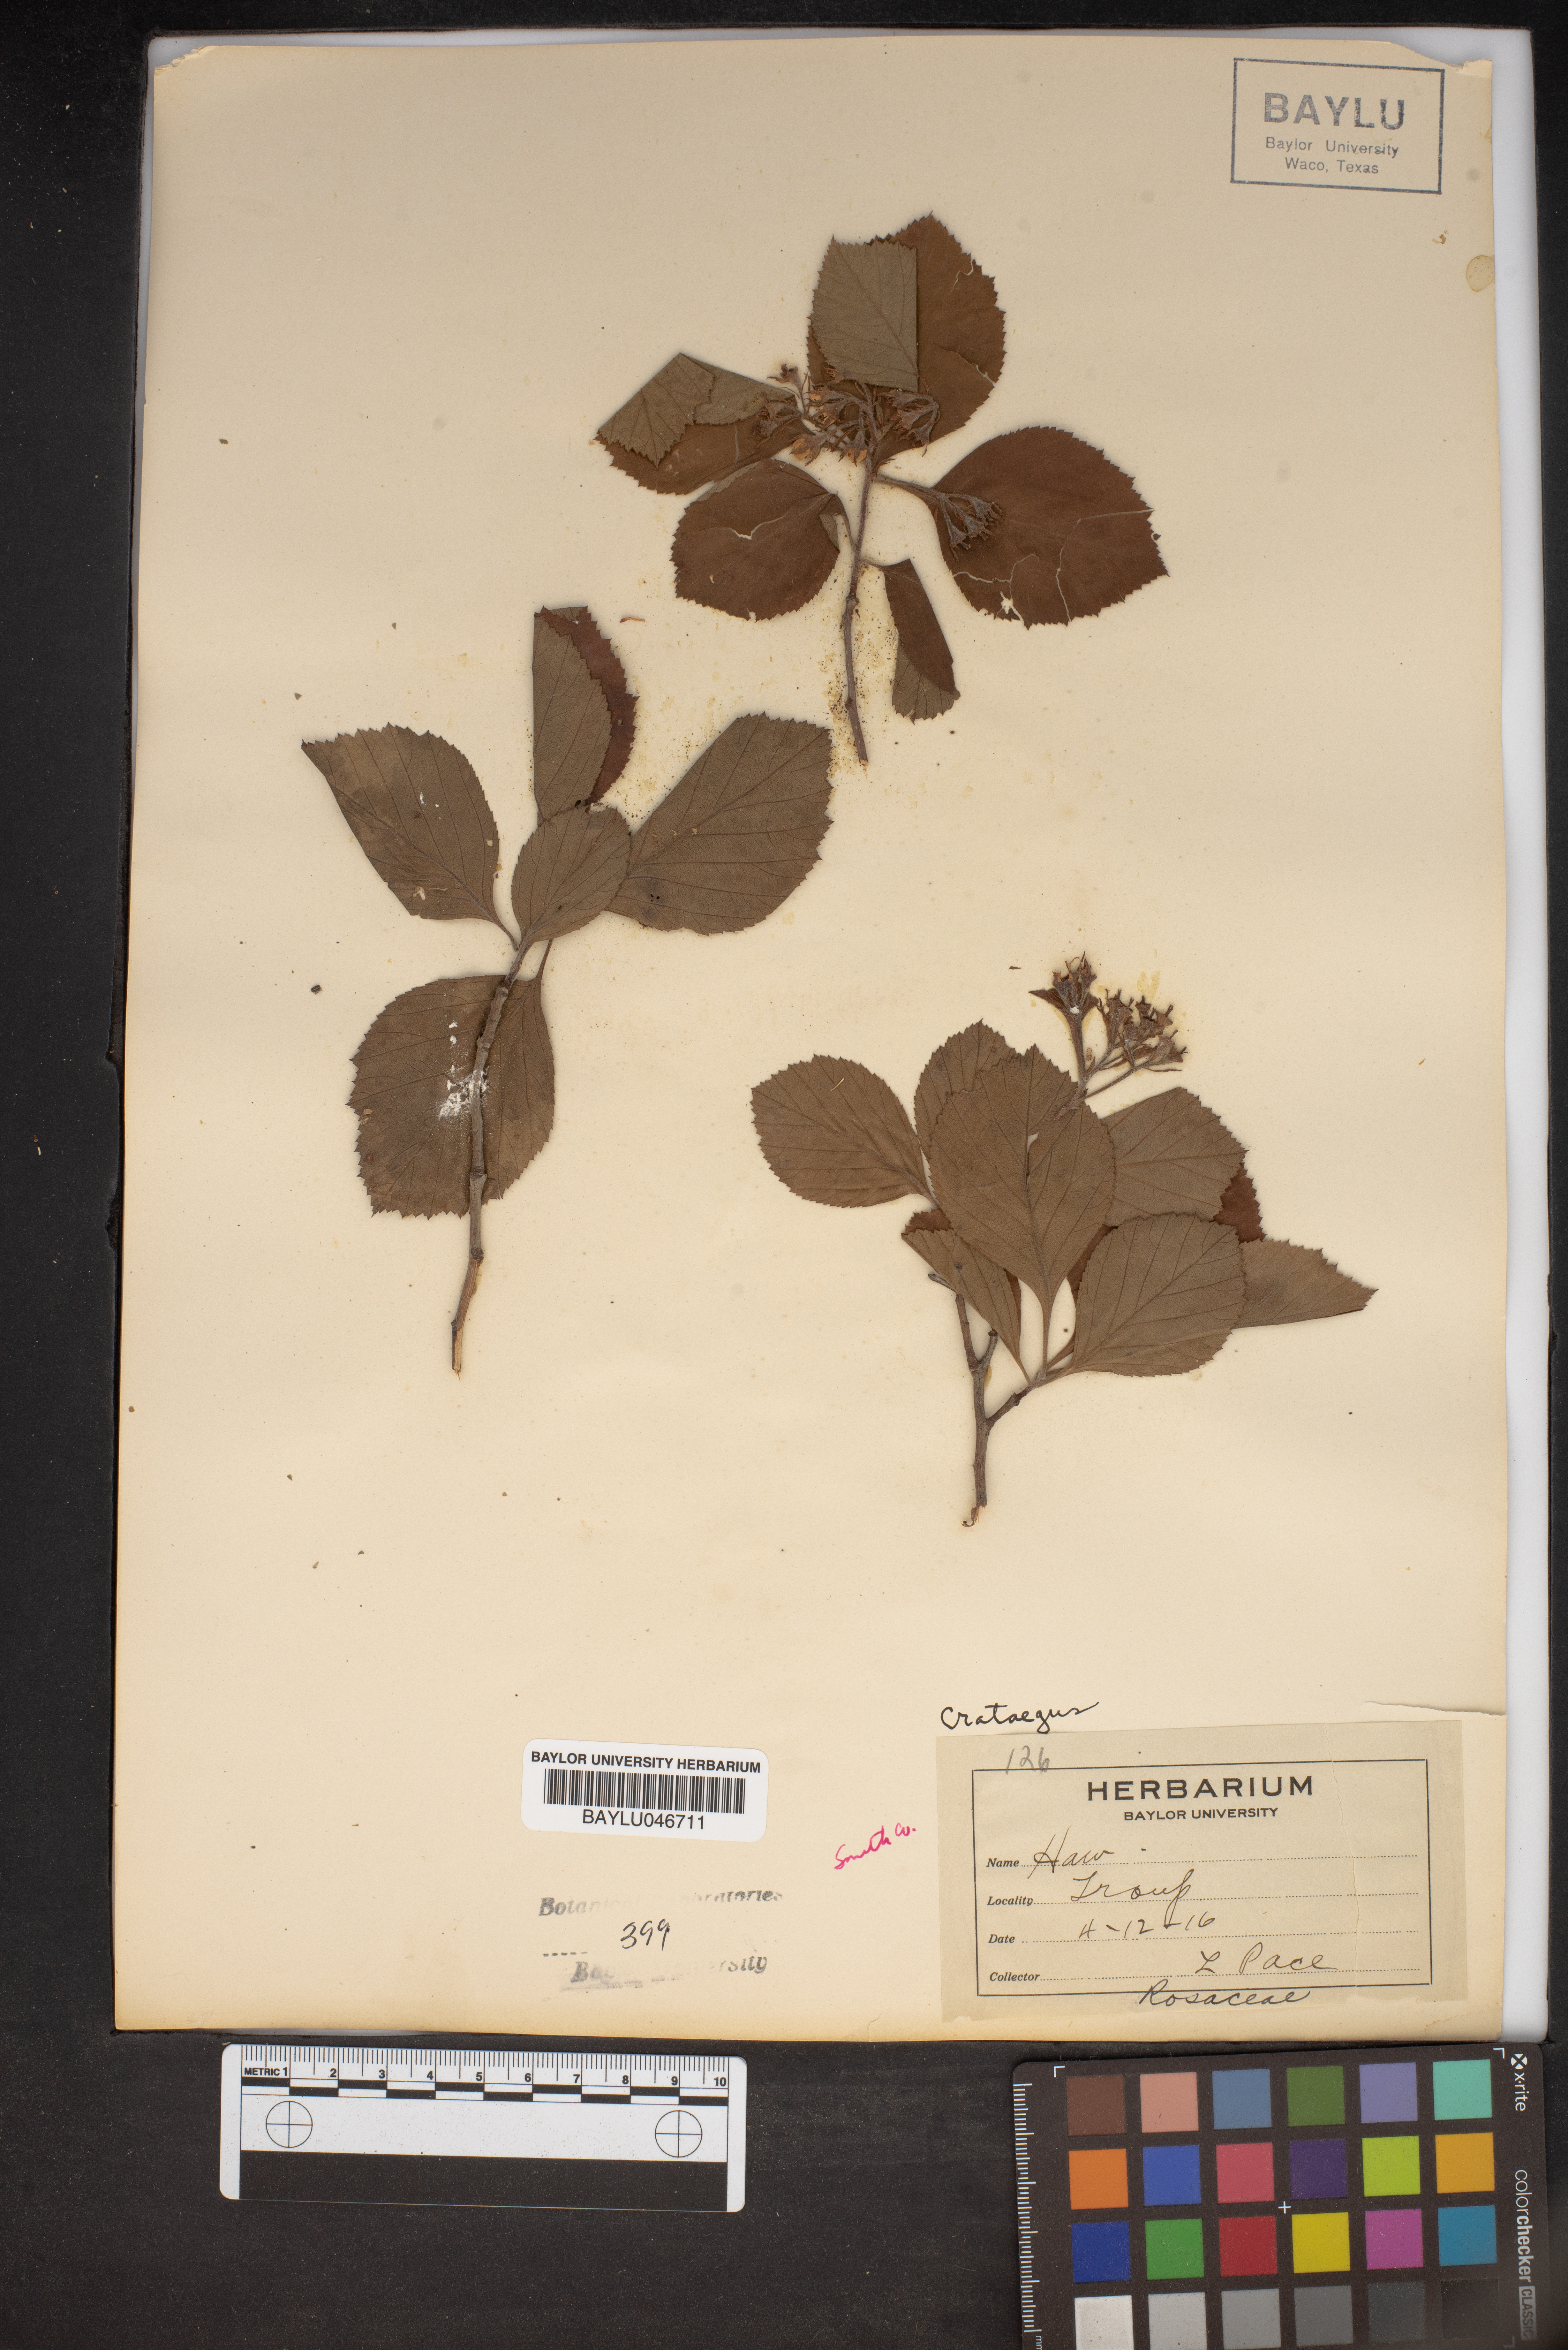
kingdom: Plantae
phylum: Tracheophyta
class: Magnoliopsida
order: Rosales
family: Rosaceae
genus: Crataegus
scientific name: Crataegus
